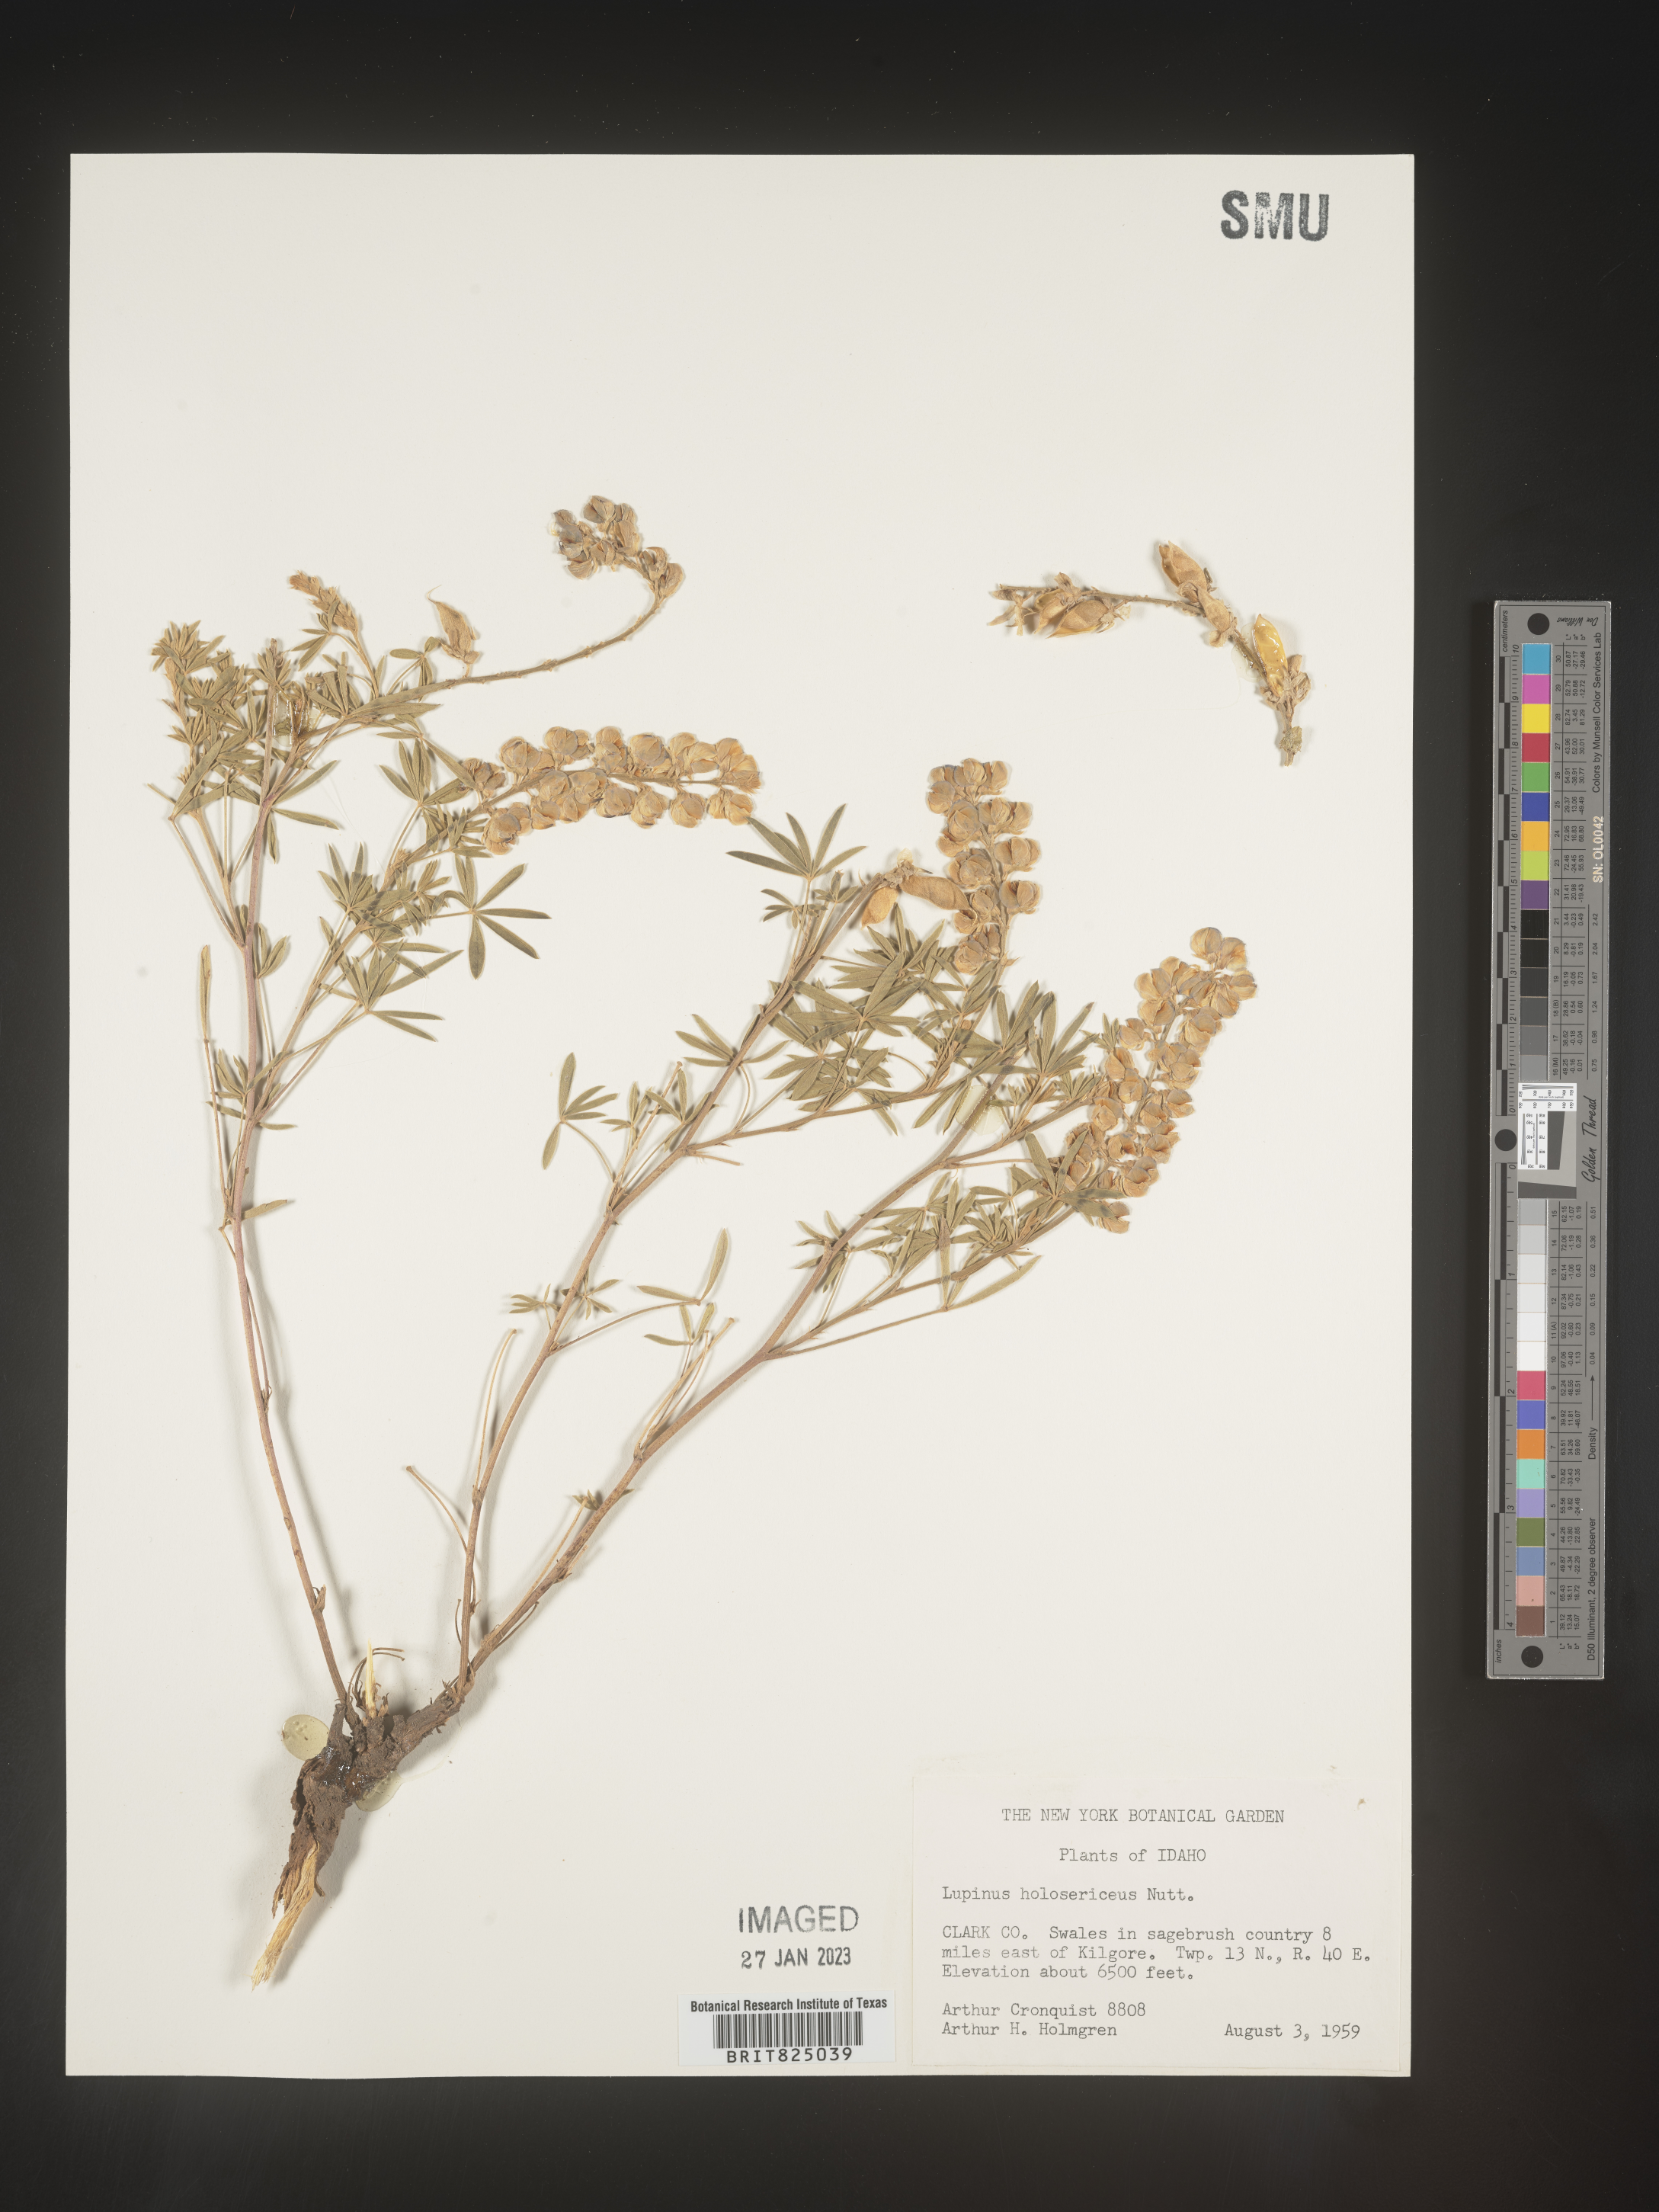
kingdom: Plantae
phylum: Tracheophyta
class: Magnoliopsida
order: Fabales
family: Fabaceae
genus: Lupinus
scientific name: Lupinus
